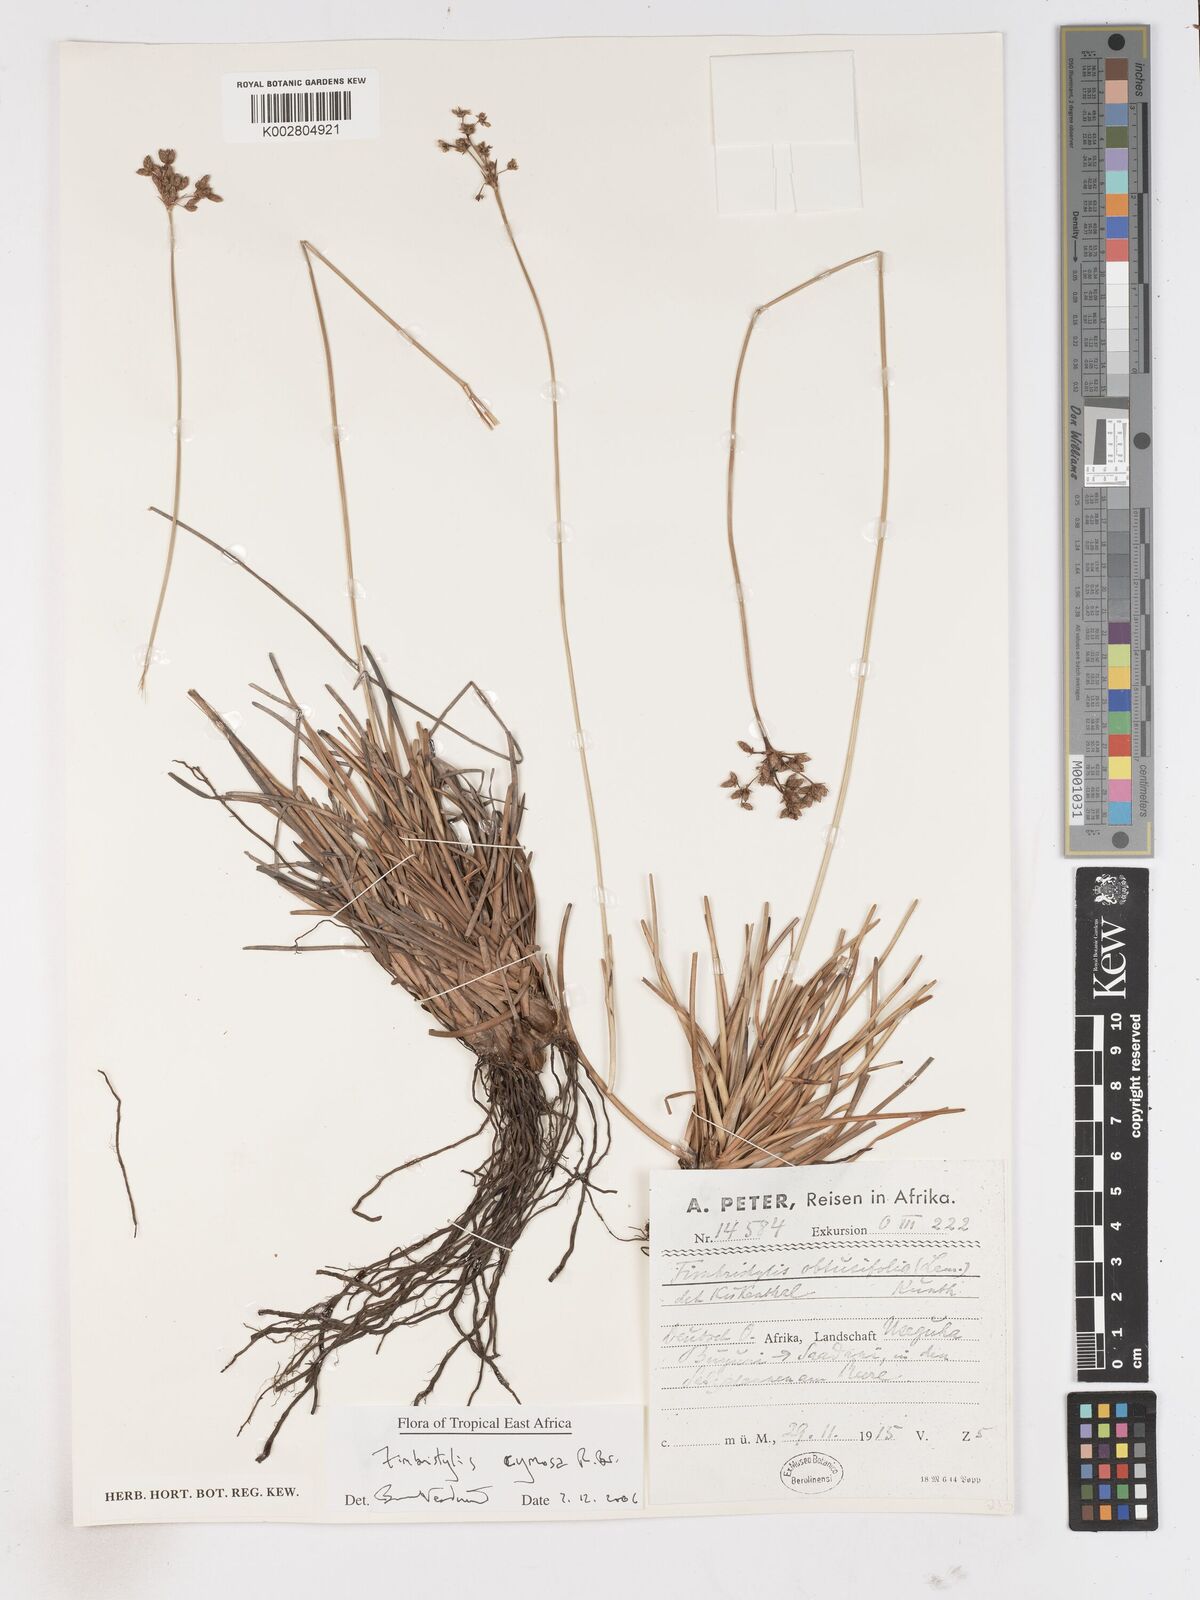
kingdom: Plantae
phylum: Tracheophyta
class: Liliopsida
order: Poales
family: Cyperaceae
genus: Fimbristylis
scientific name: Fimbristylis cymosa
